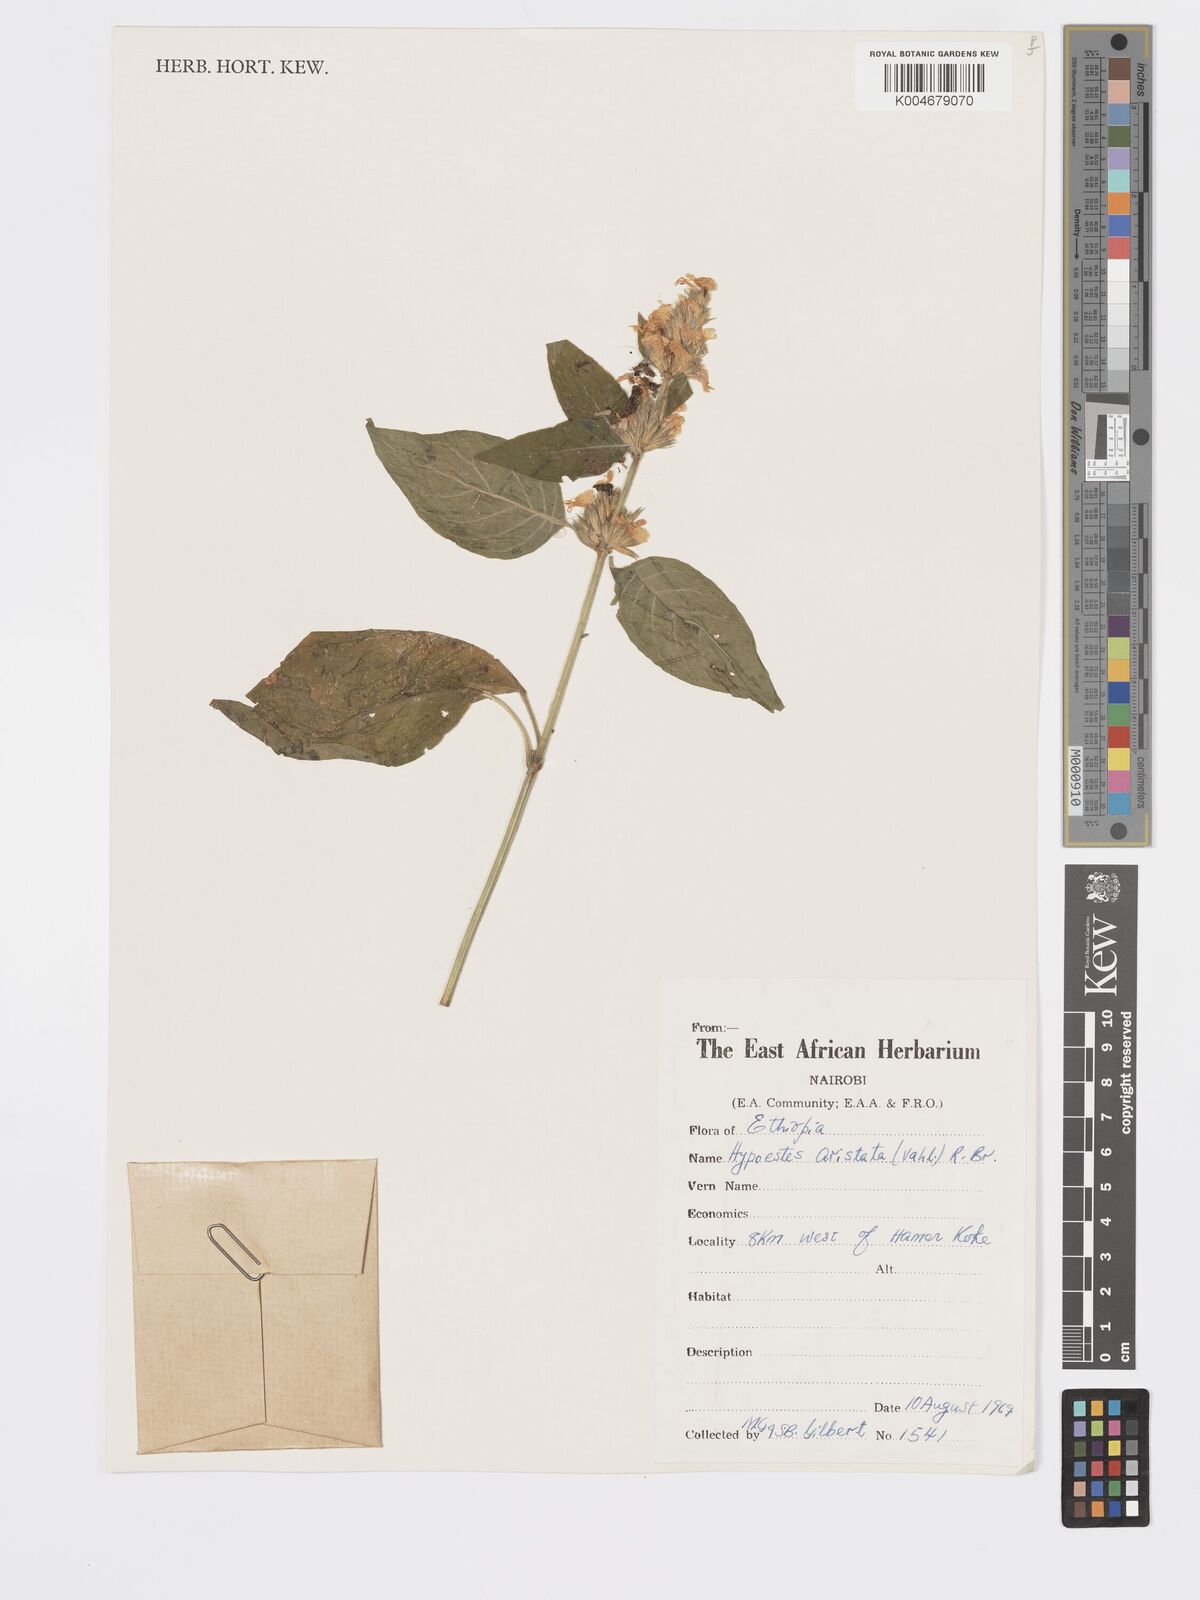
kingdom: Plantae
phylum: Tracheophyta
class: Magnoliopsida
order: Lamiales
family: Acanthaceae
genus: Hypoestes
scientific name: Hypoestes forskaolii
